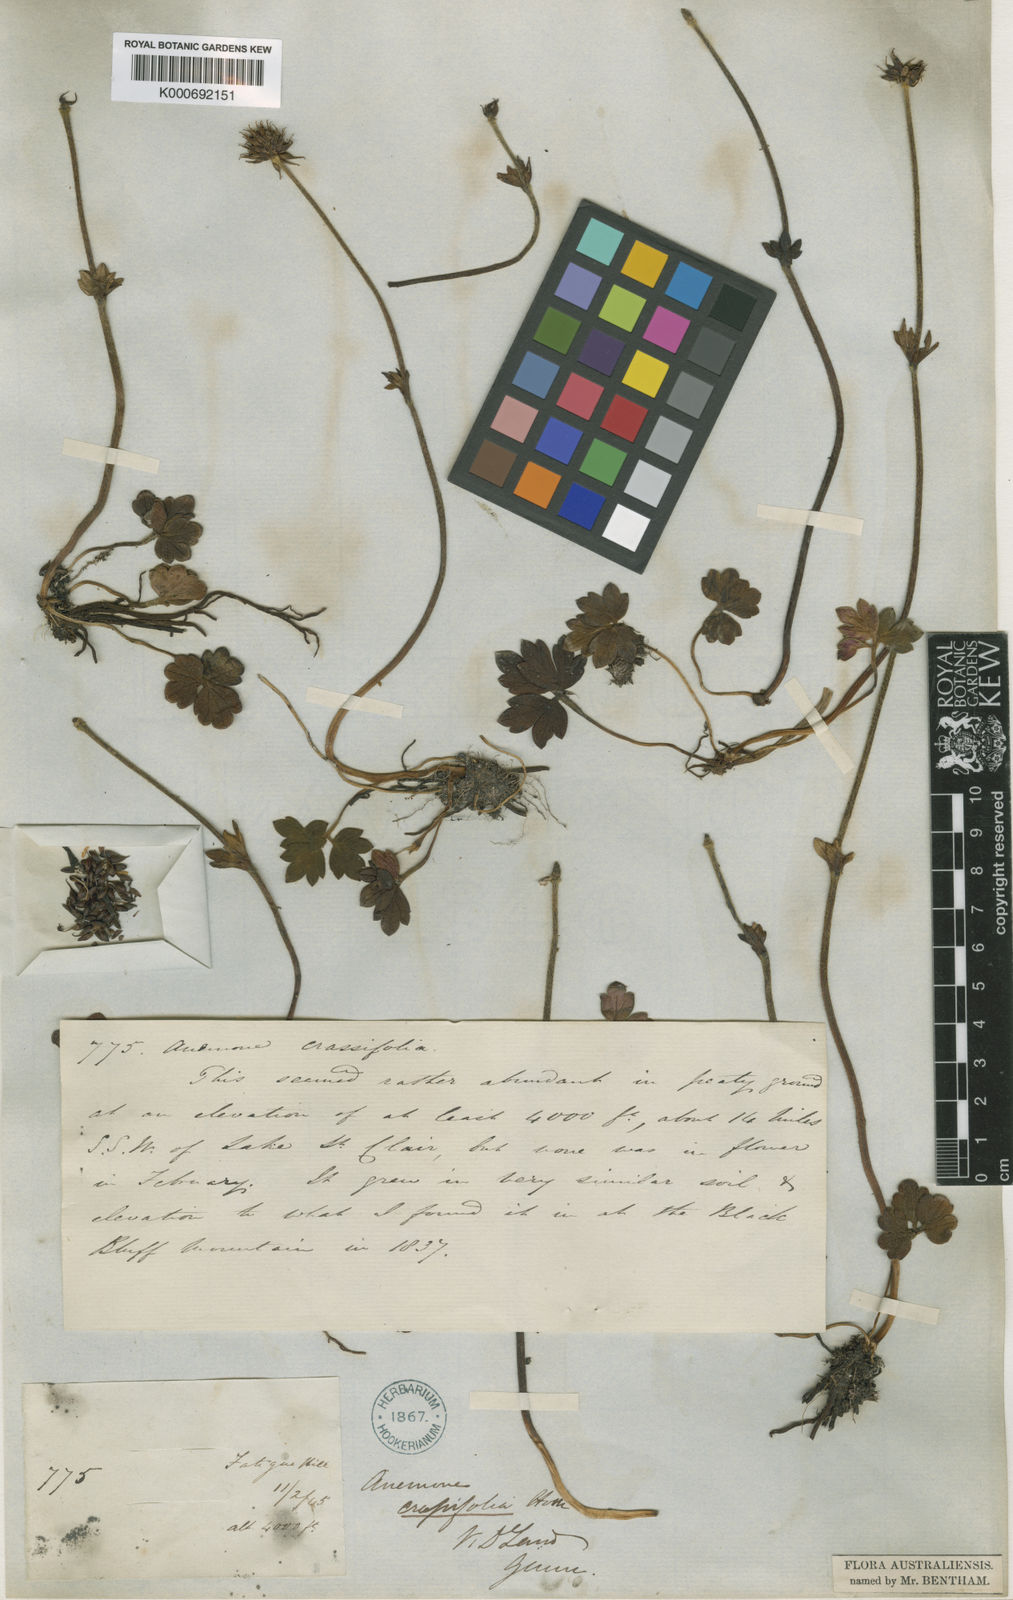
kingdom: Plantae
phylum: Tracheophyta
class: Magnoliopsida
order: Ranunculales
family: Ranunculaceae
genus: Knowltonia
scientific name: Knowltonia crassifolia
